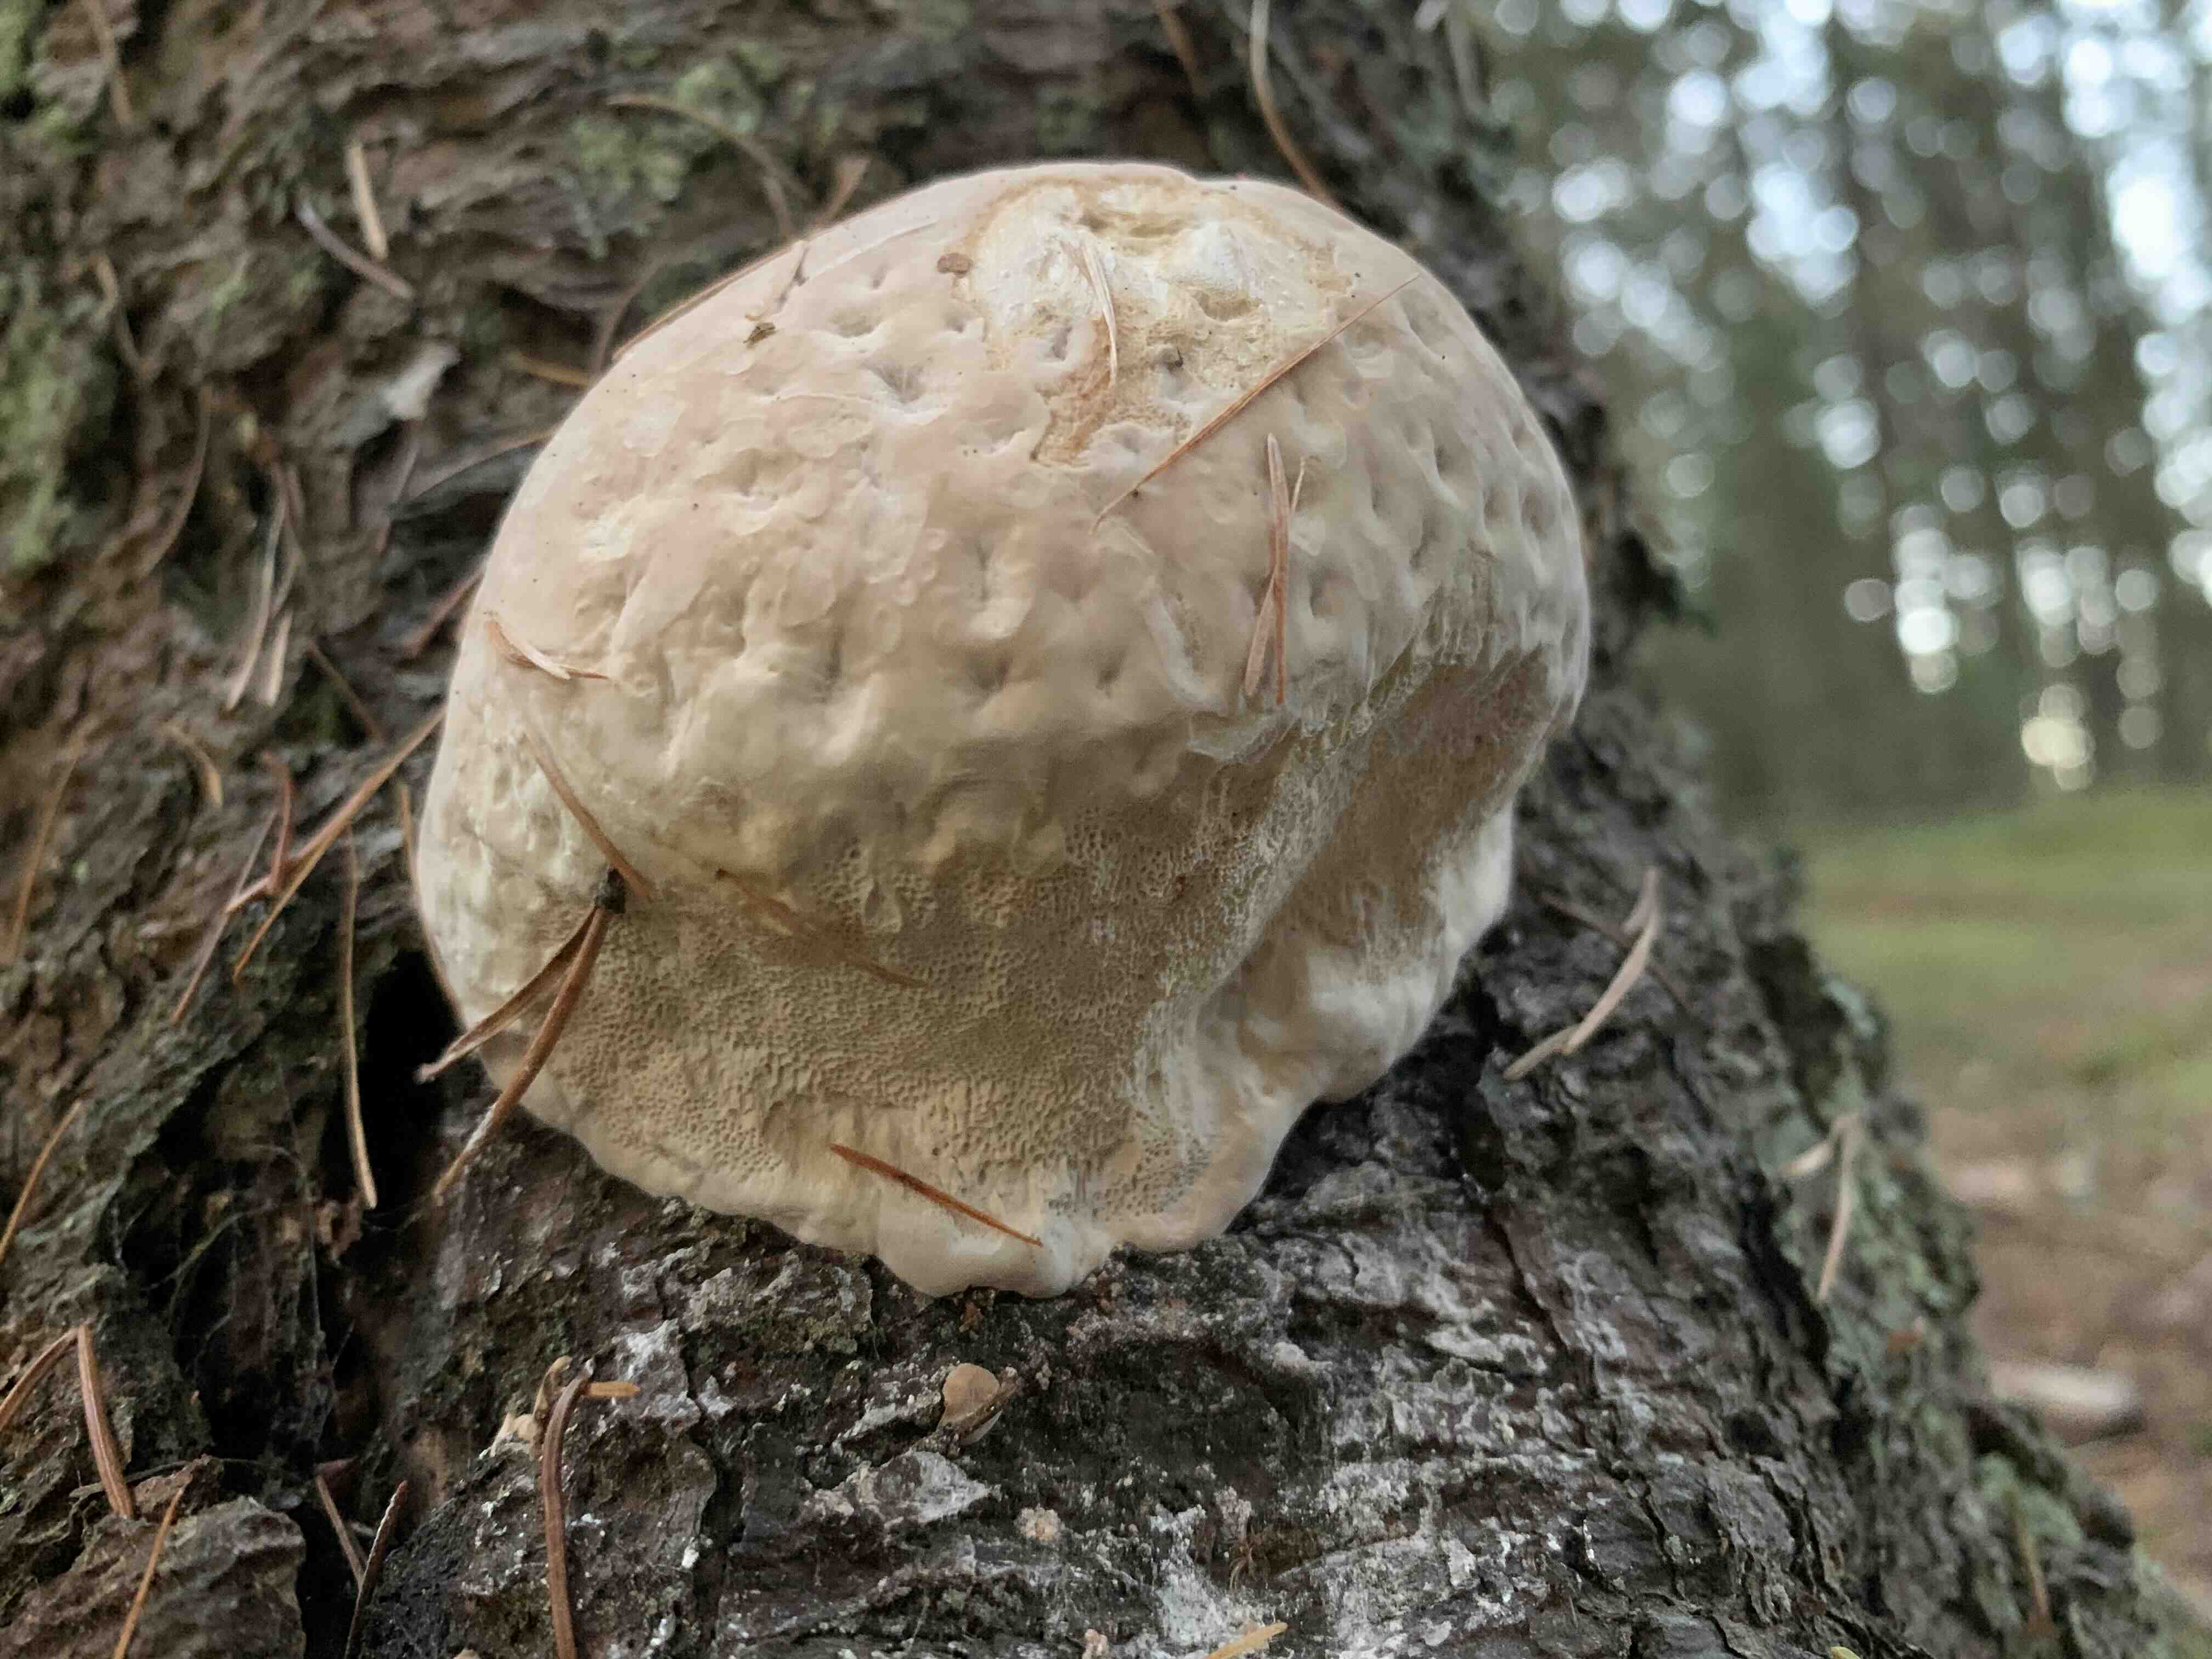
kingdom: Fungi
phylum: Basidiomycota
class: Agaricomycetes
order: Polyporales
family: Fomitopsidaceae
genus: Fomitopsis
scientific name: Fomitopsis
